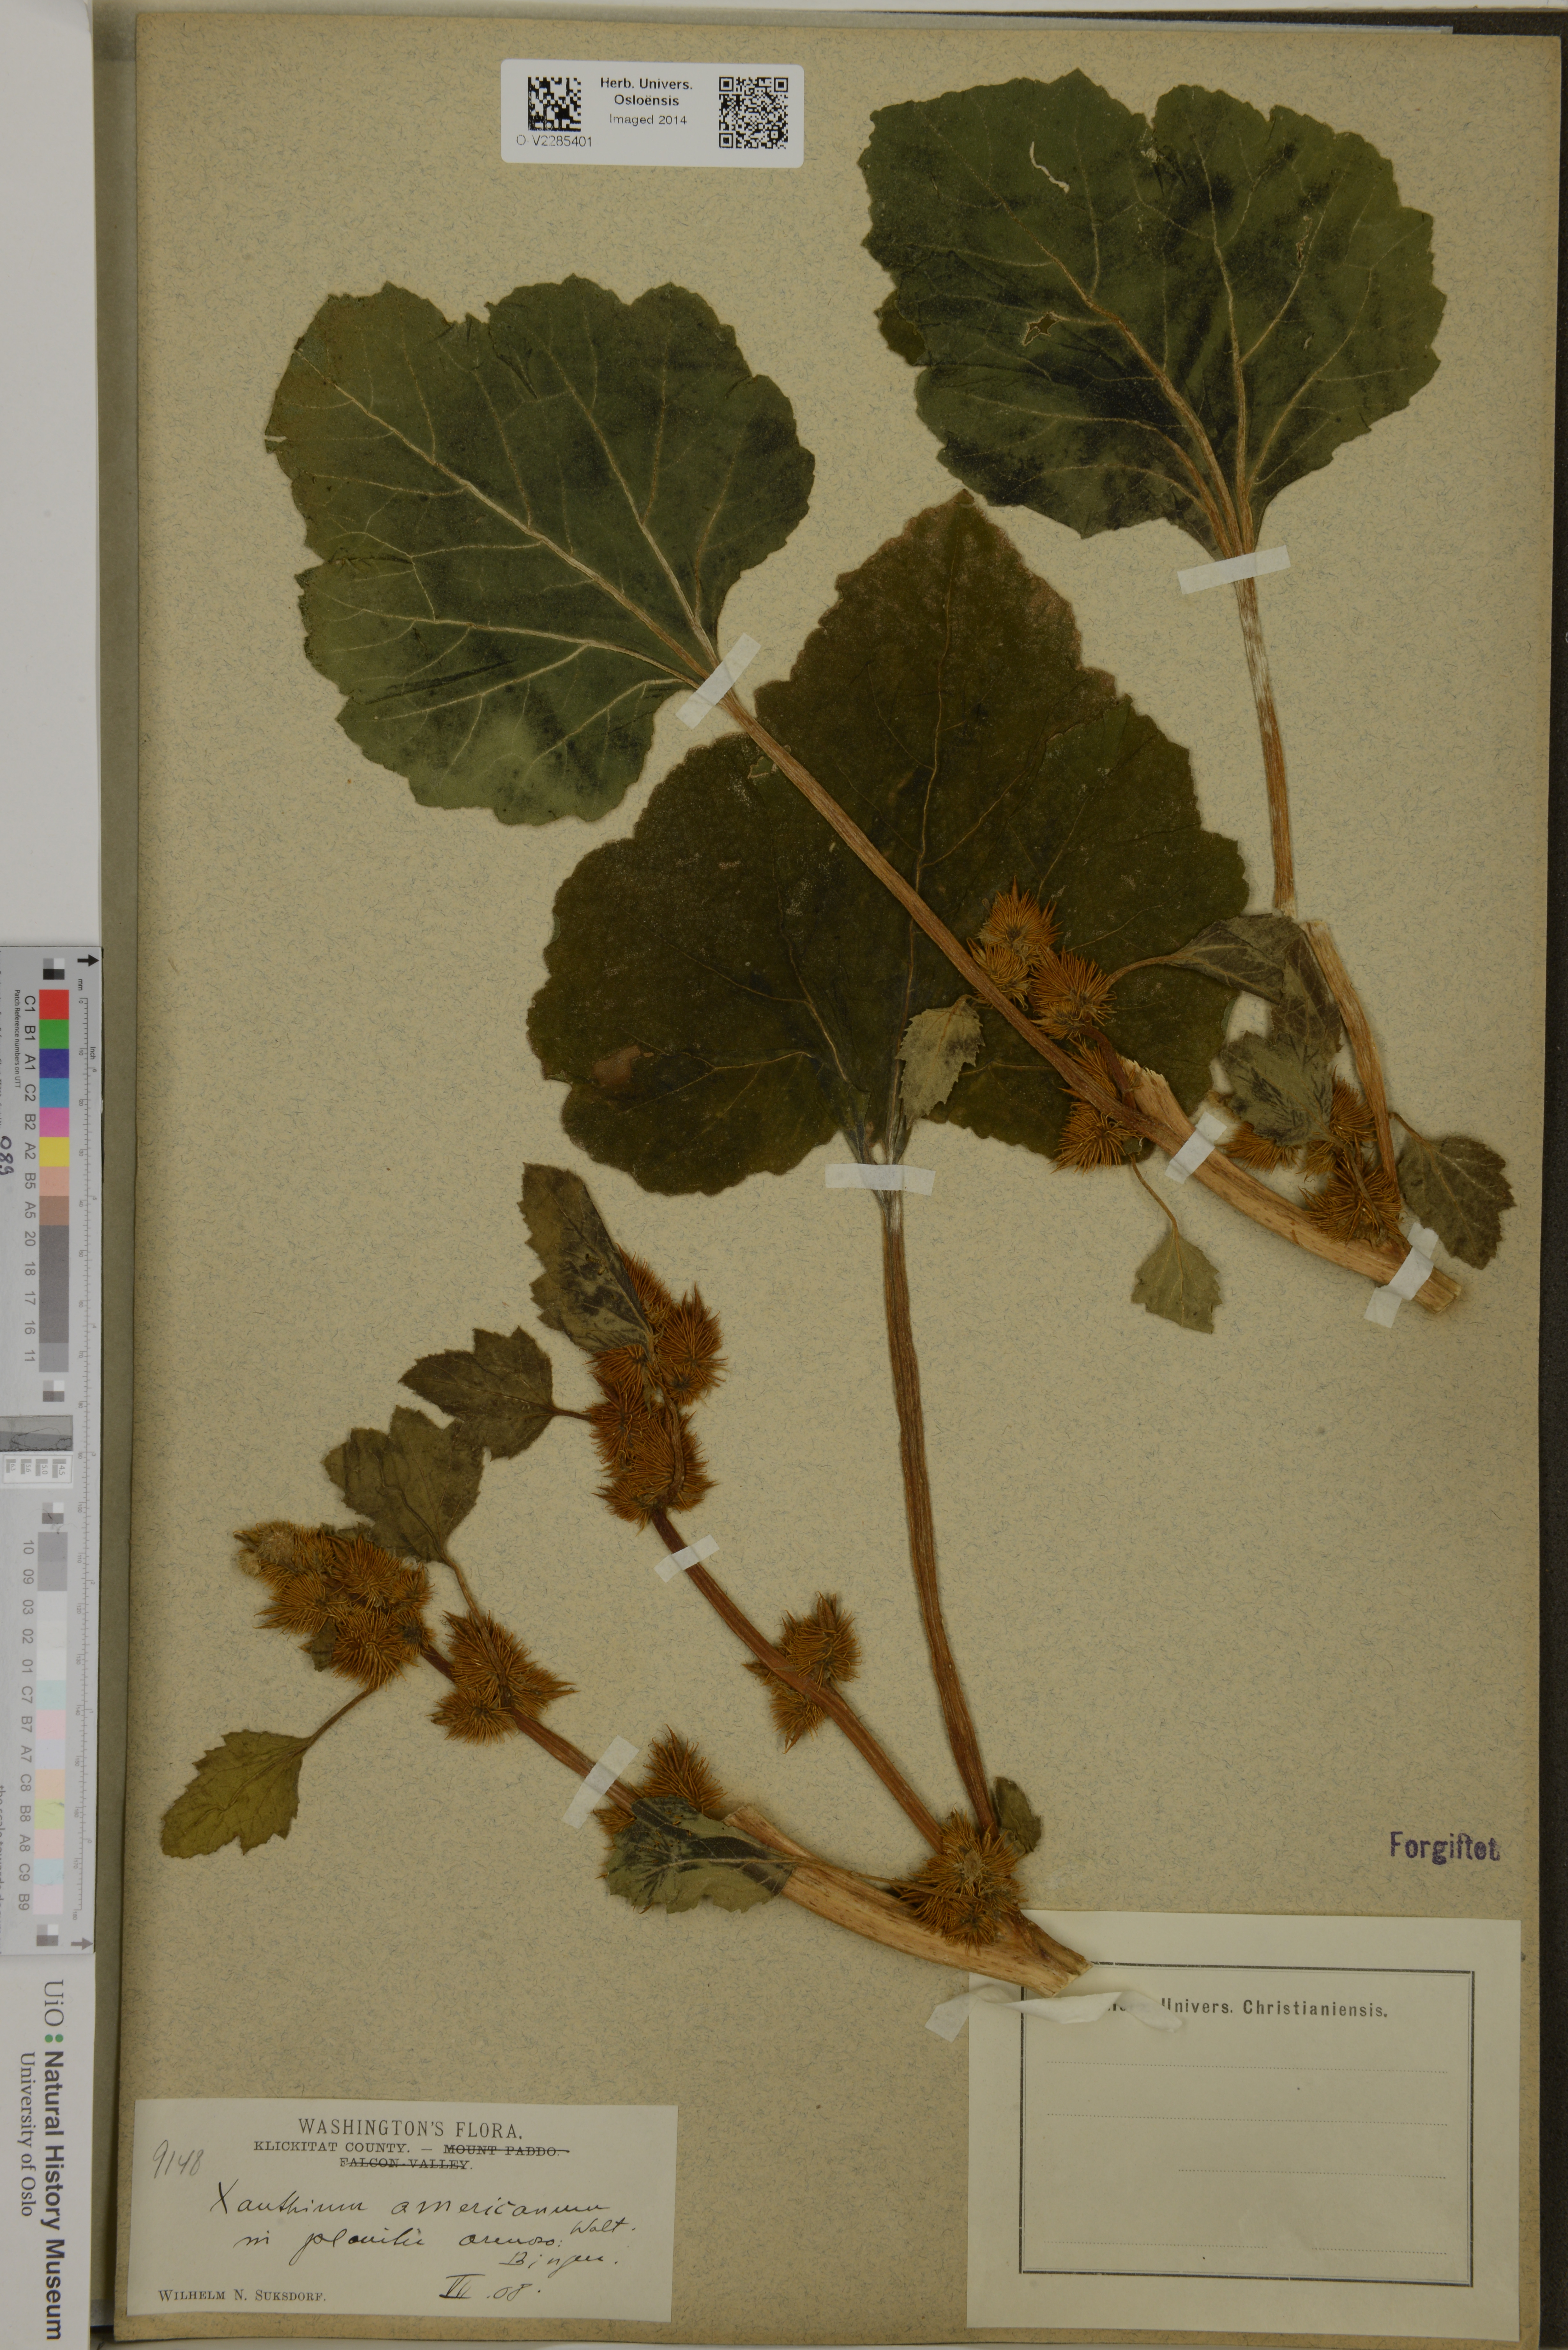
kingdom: Plantae
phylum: Tracheophyta
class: Magnoliopsida
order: Asterales
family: Asteraceae
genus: Xanthium
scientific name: Xanthium orientale
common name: Californian burr
